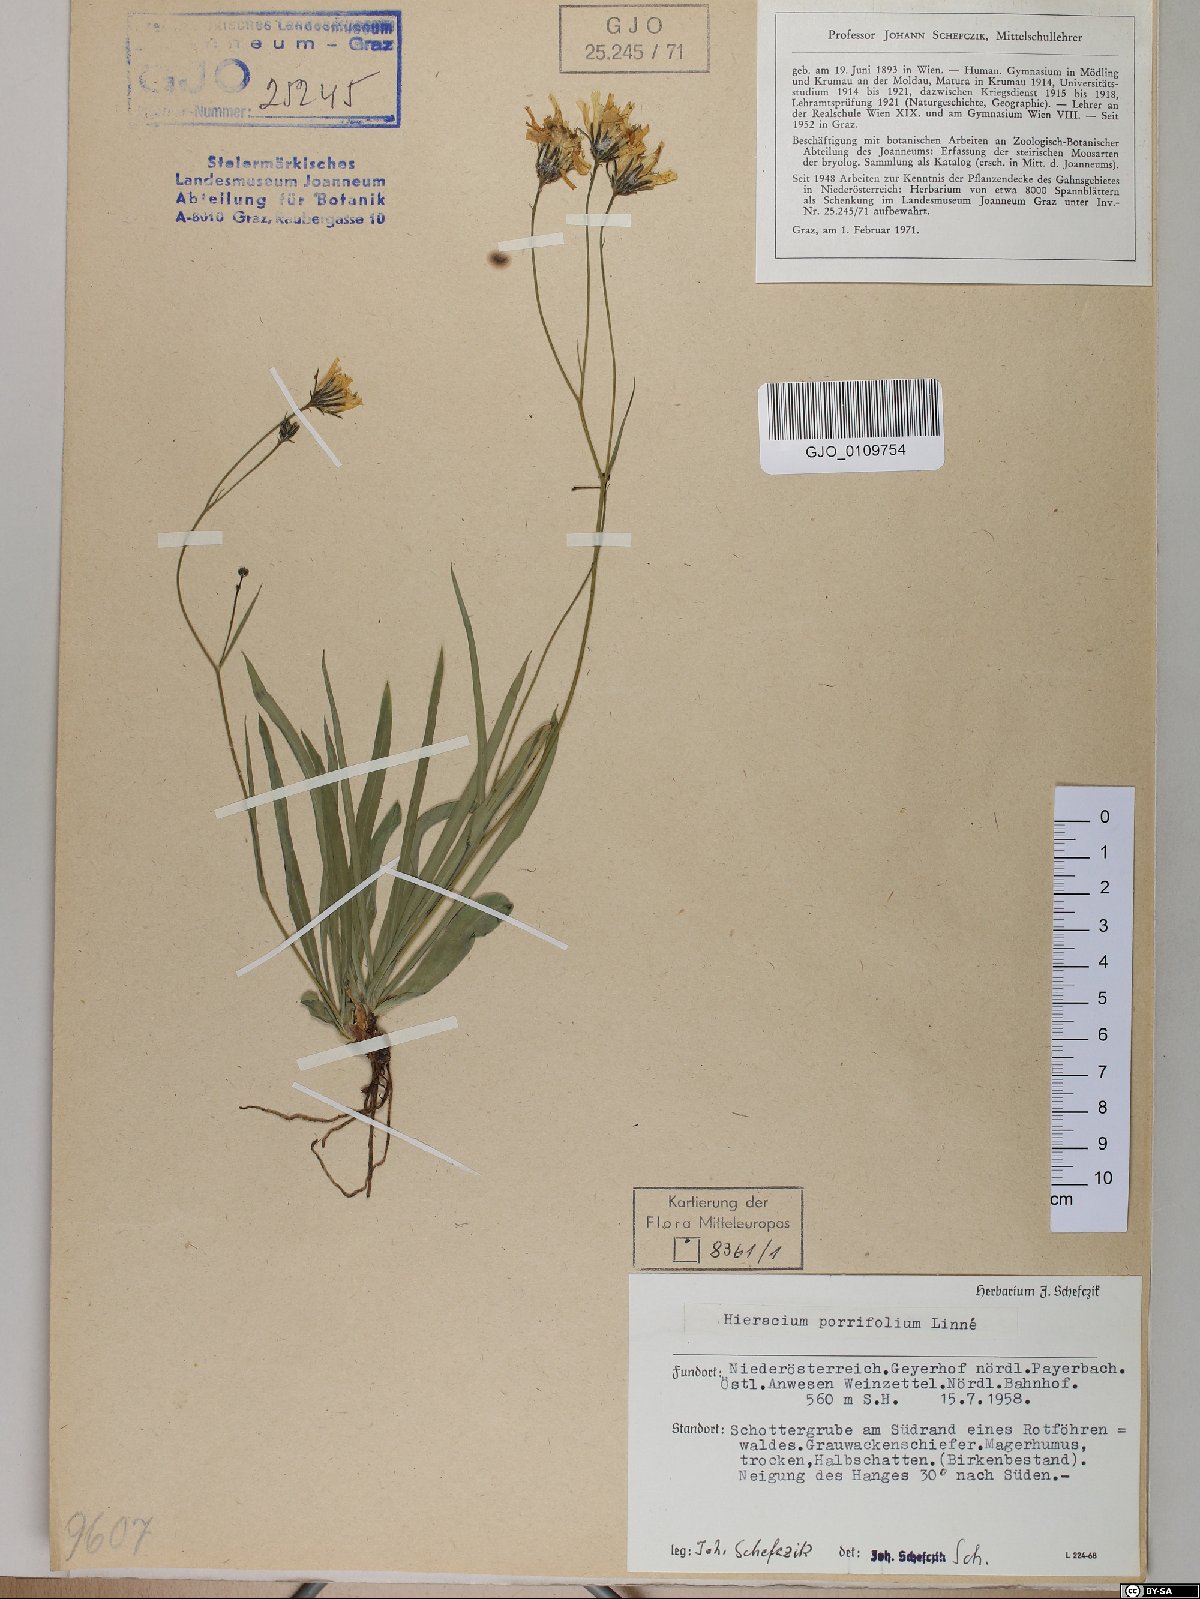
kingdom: Plantae
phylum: Tracheophyta
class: Magnoliopsida
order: Asterales
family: Asteraceae
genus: Hieracium
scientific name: Hieracium porrifolium
